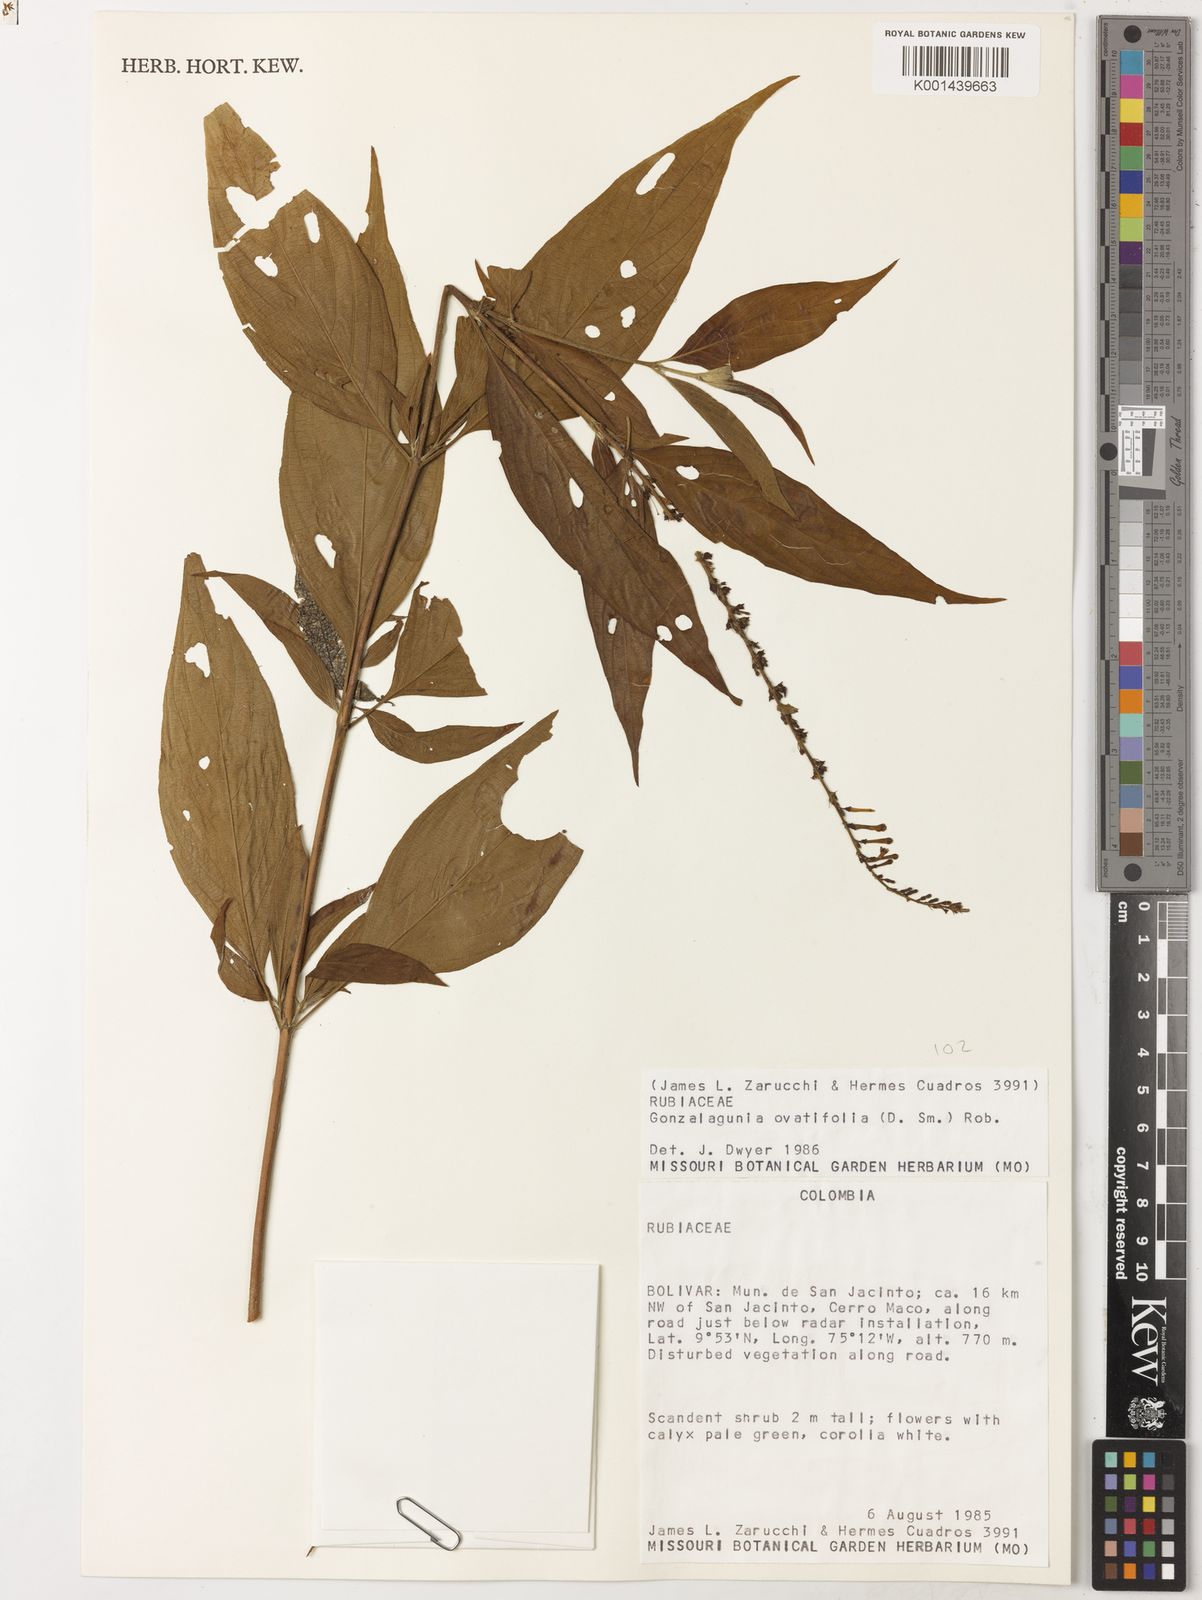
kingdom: Plantae
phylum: Tracheophyta
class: Magnoliopsida
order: Gentianales
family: Rubiaceae
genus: Gonzalagunia
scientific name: Gonzalagunia ovatifolia
